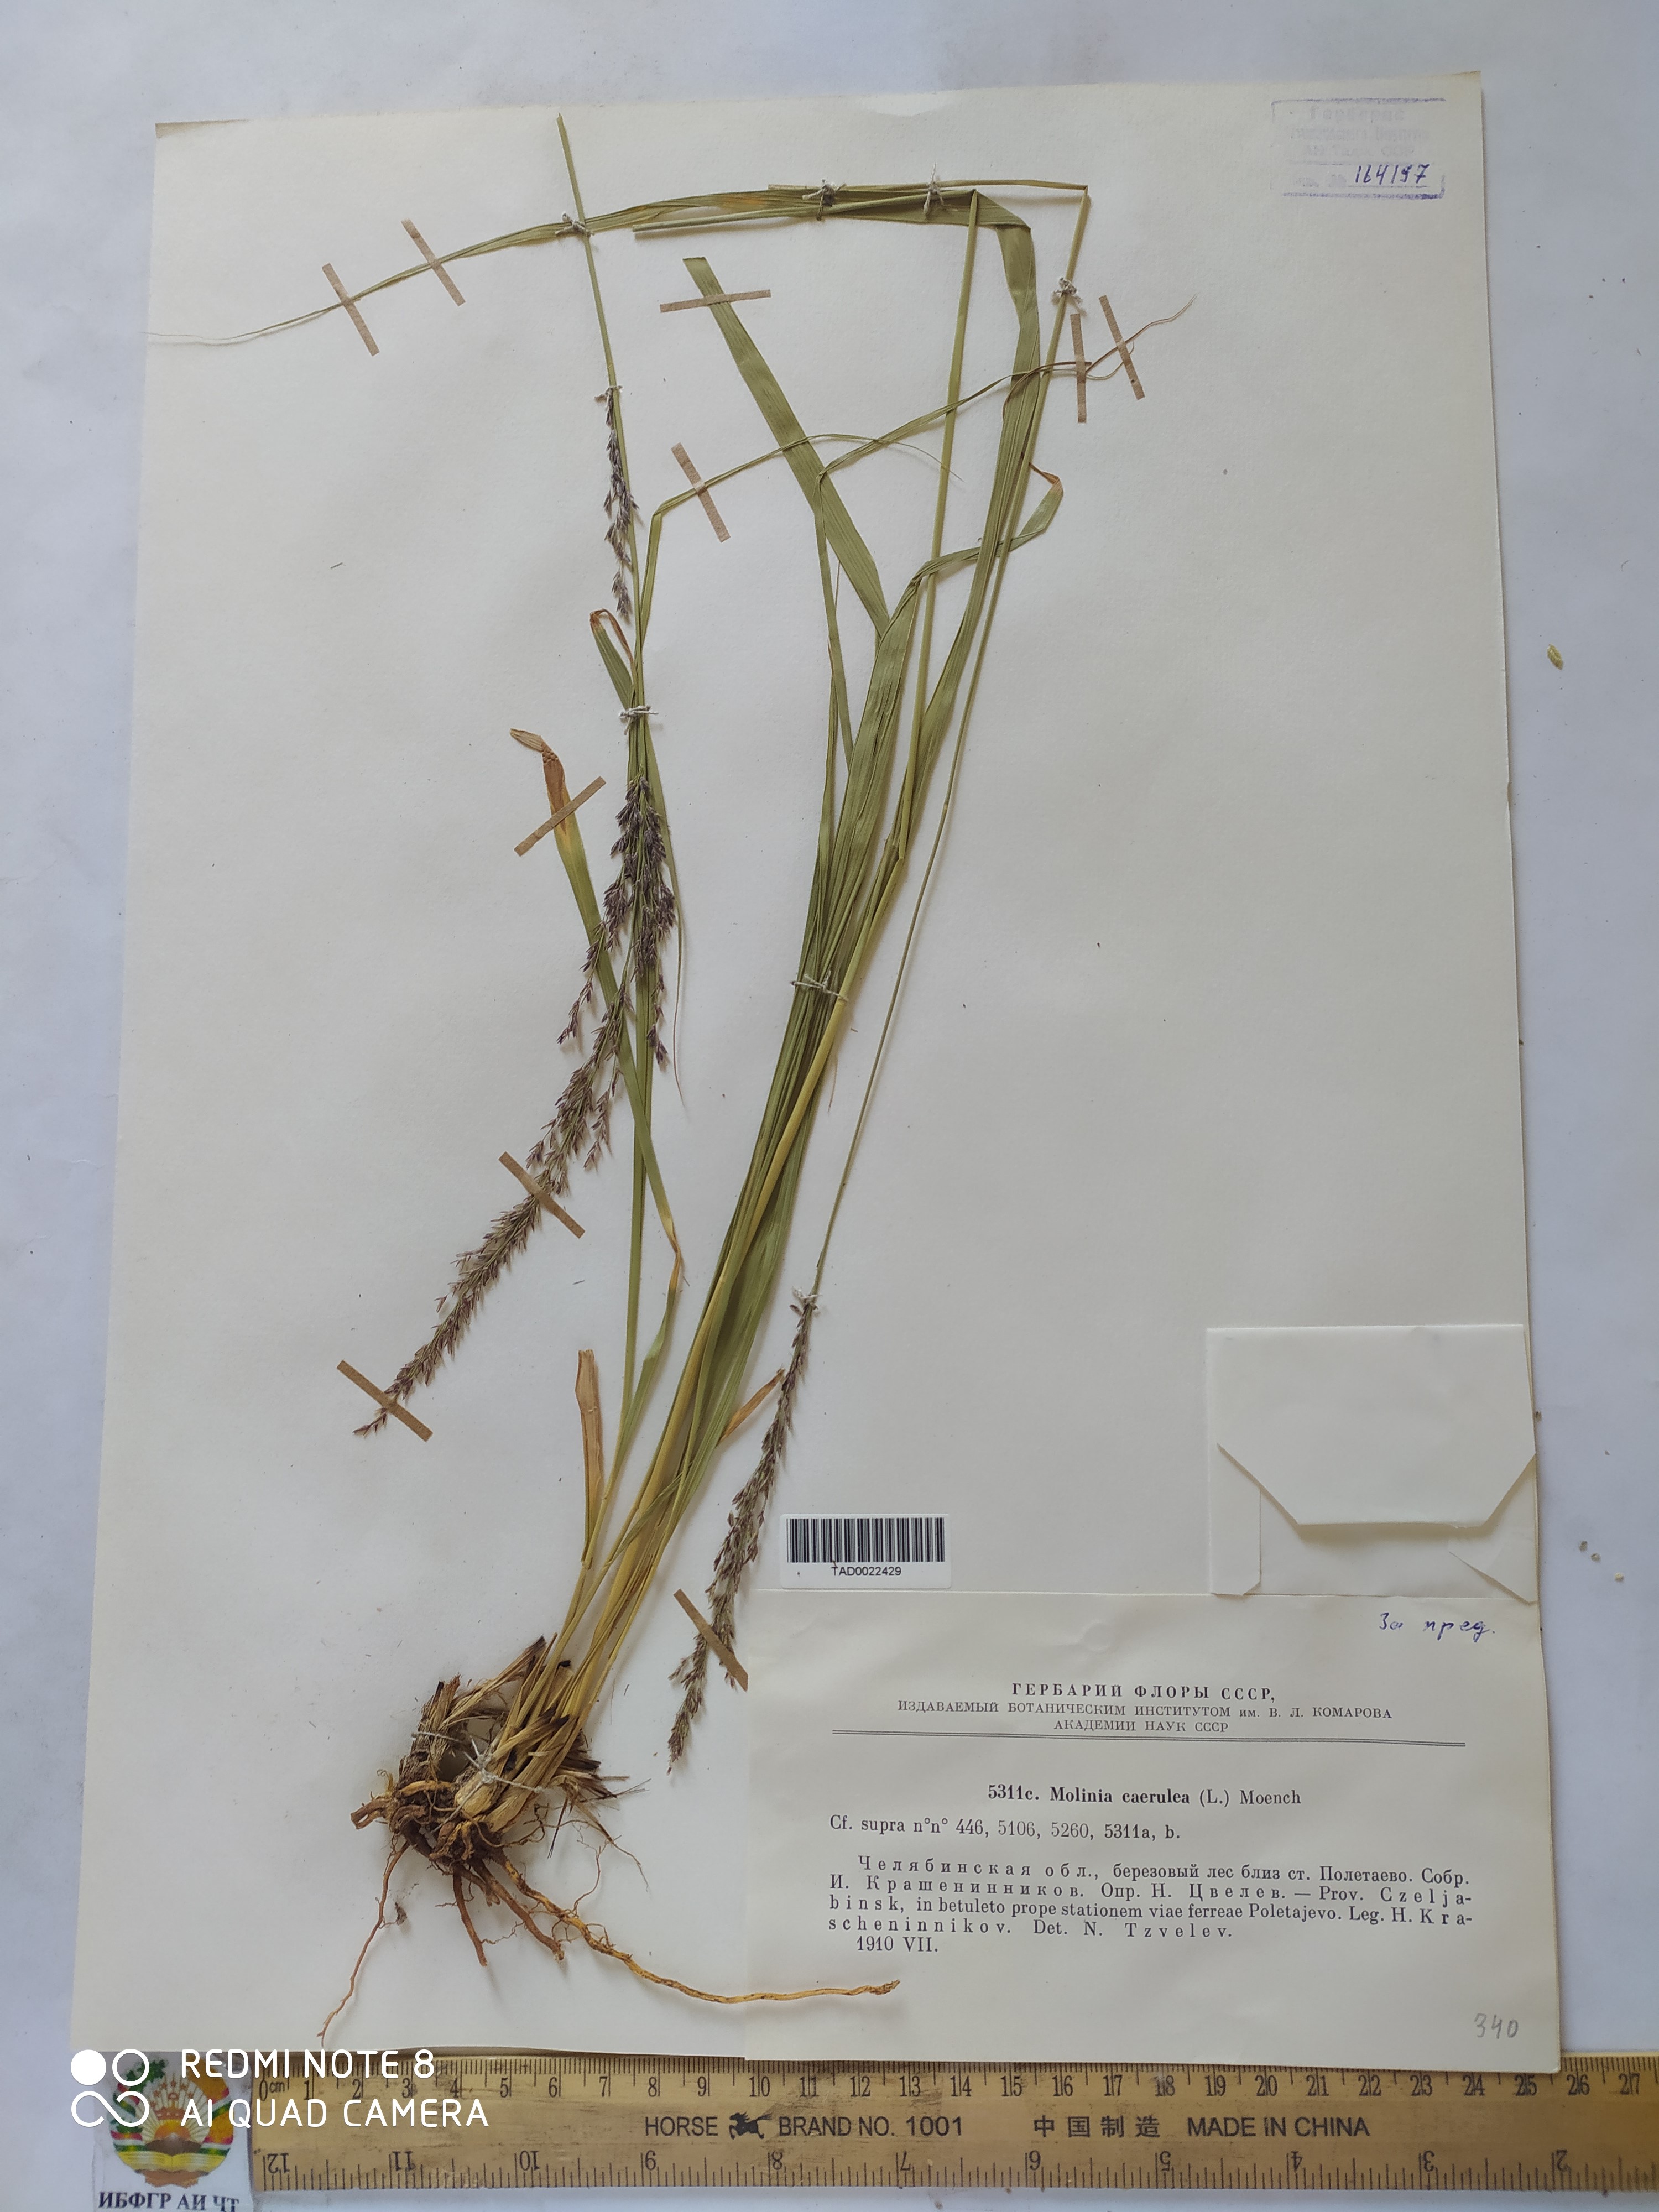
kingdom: Plantae
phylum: Tracheophyta
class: Liliopsida
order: Poales
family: Poaceae
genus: Molinia
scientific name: Molinia caerulea
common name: Purple moor-grass
